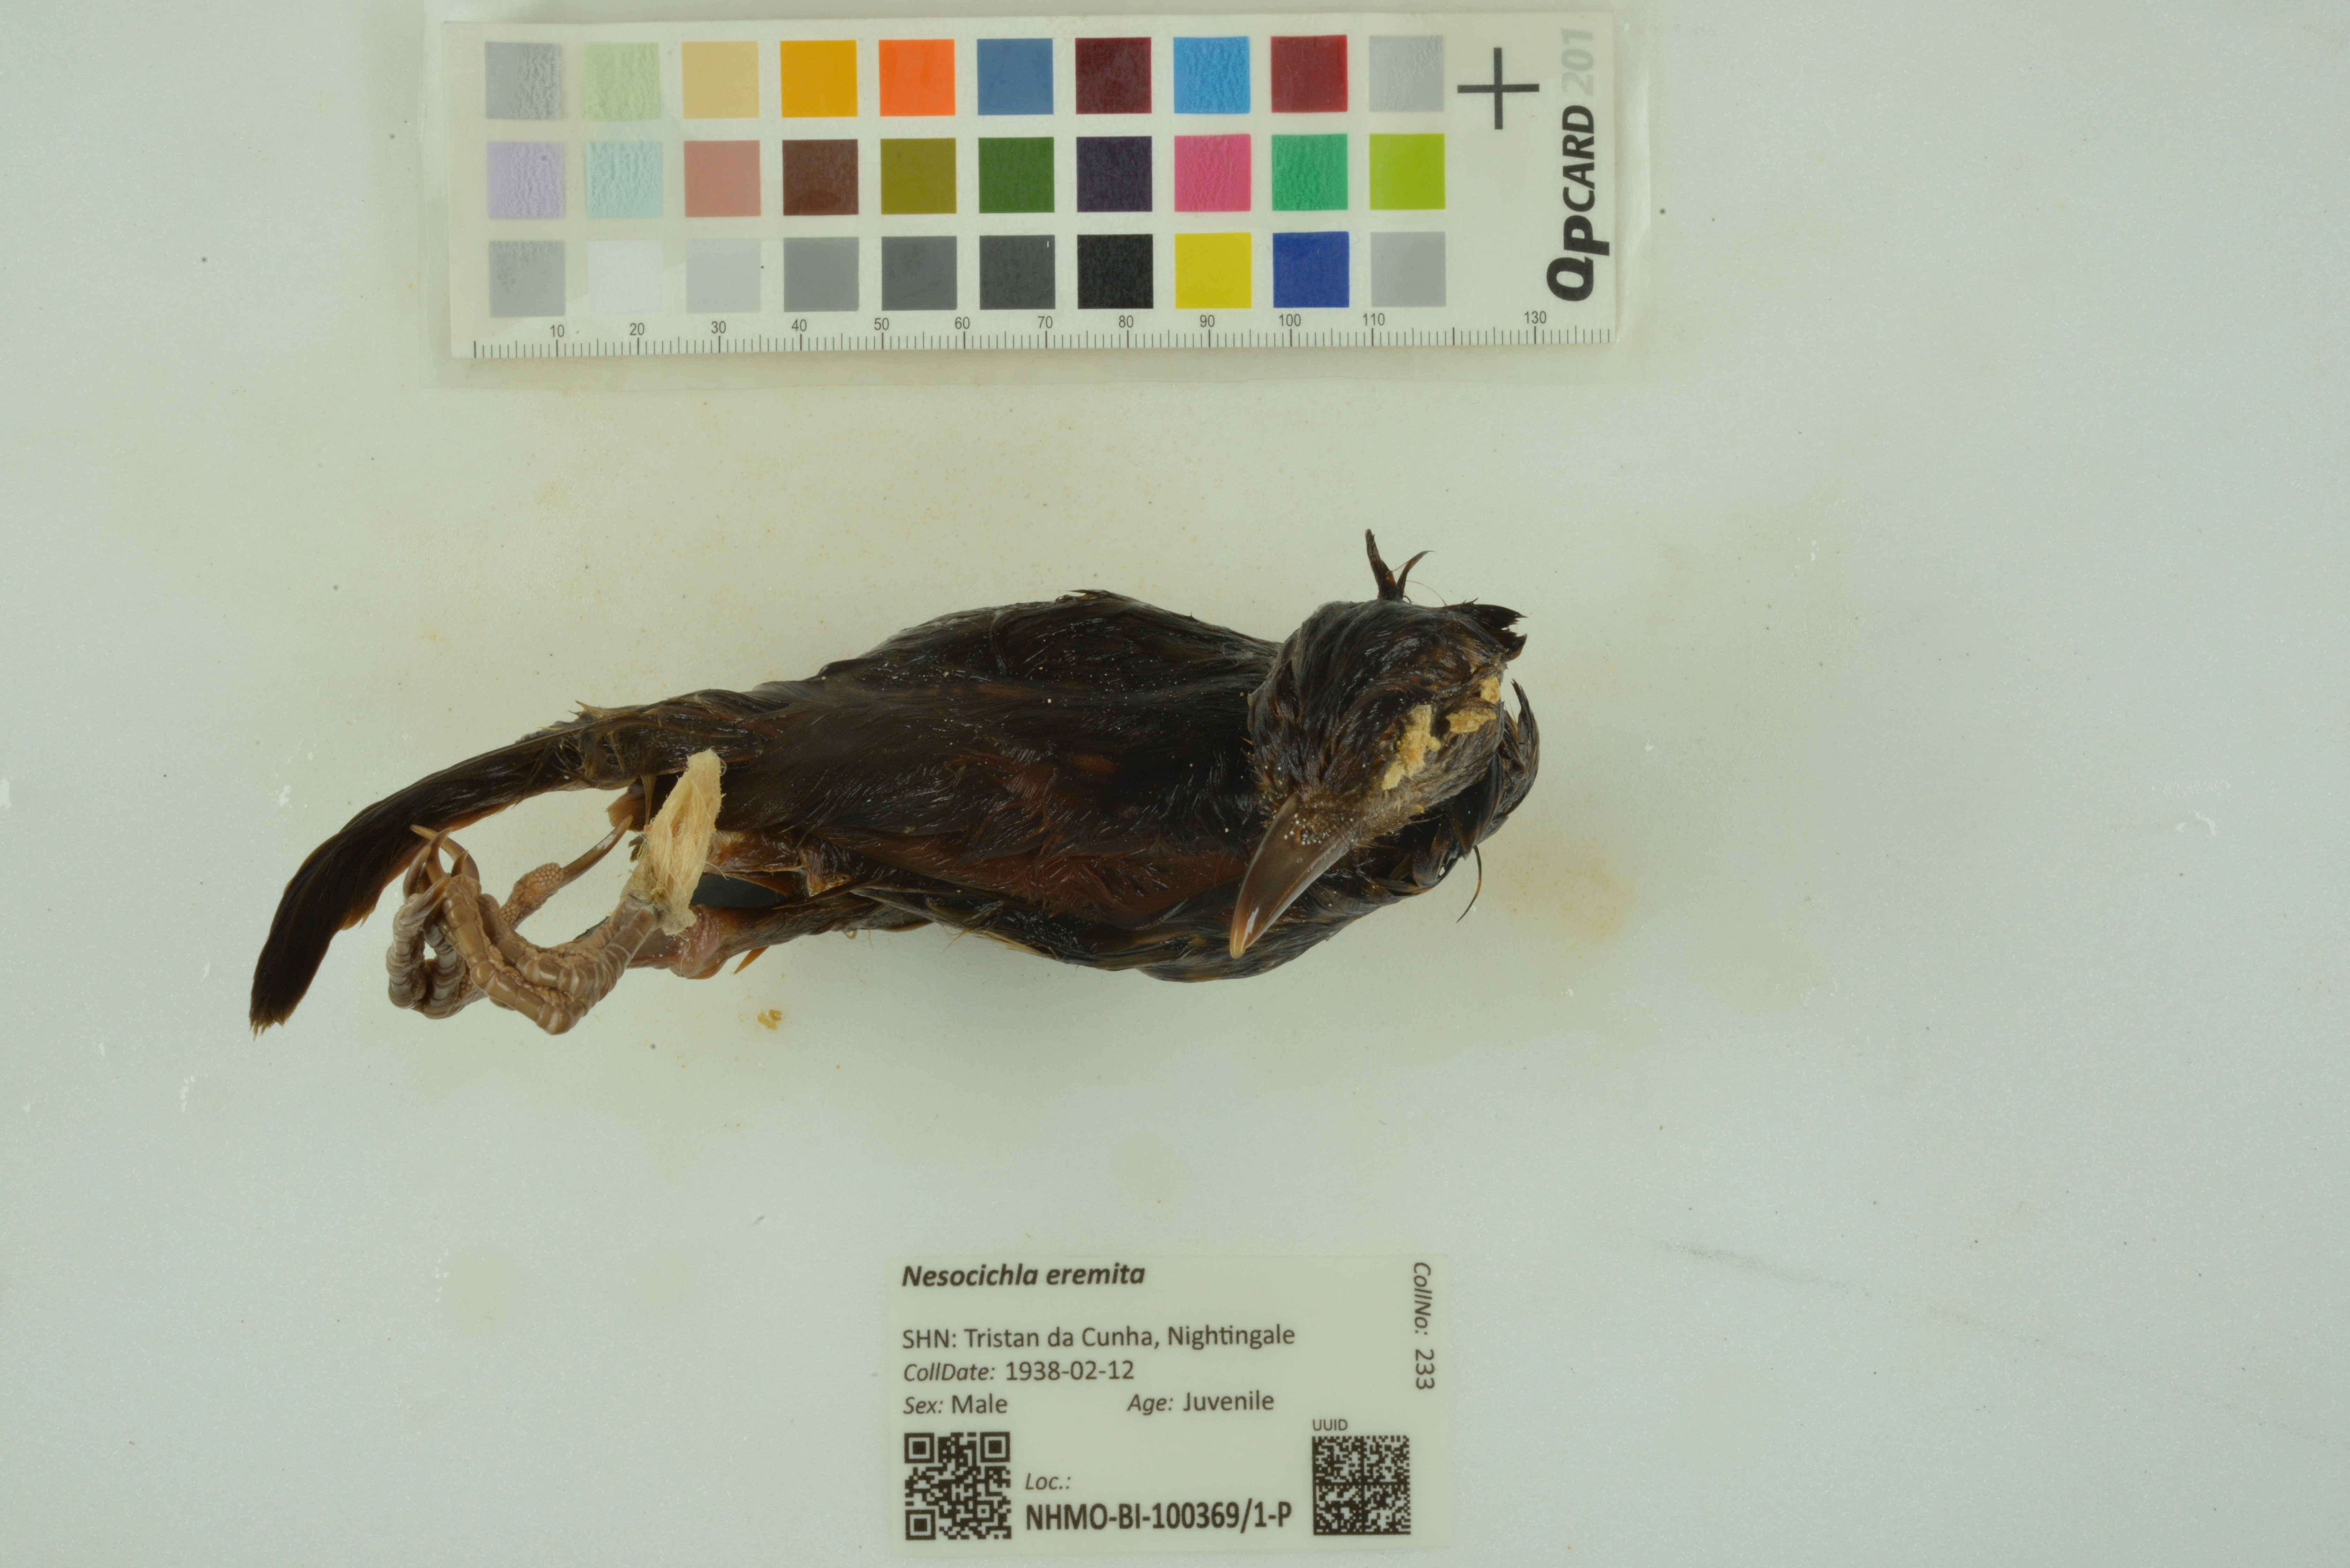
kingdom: Animalia
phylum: Chordata
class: Aves
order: Passeriformes
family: Turdidae
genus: Nesocichla
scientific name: Nesocichla eremita
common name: Tristan thrush
